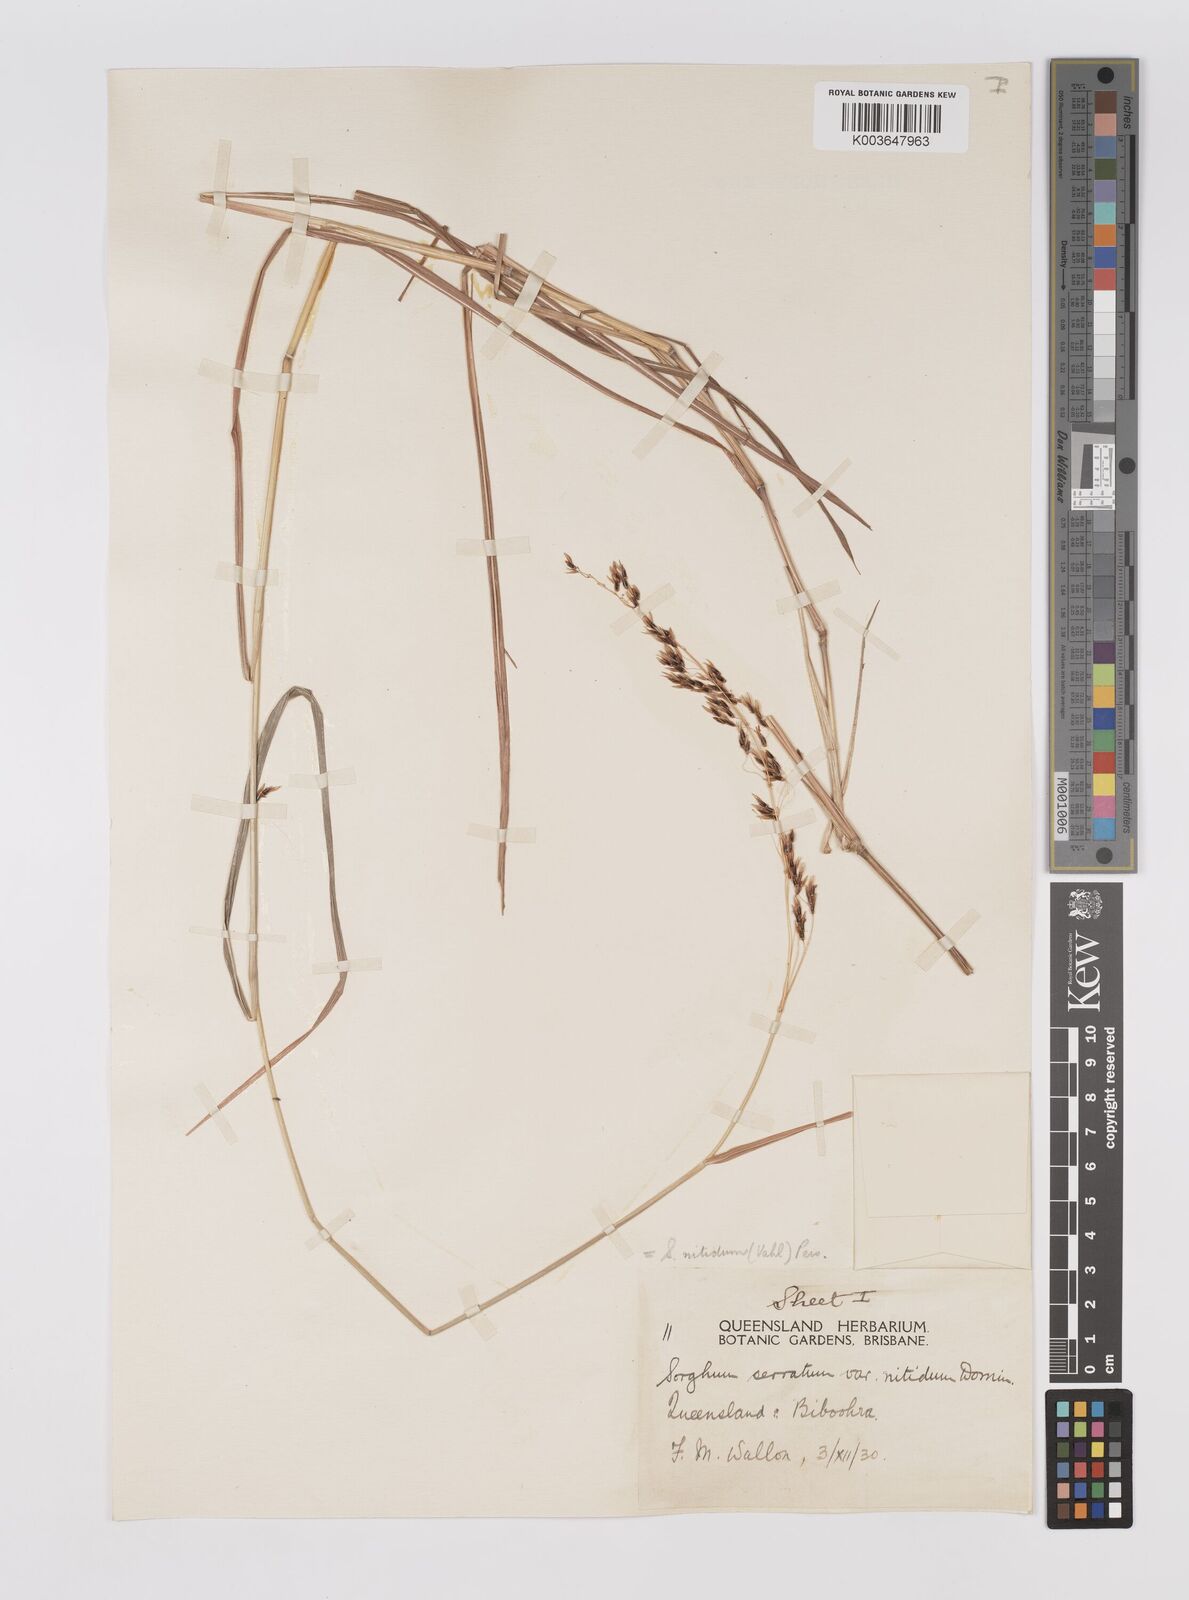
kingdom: Plantae
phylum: Tracheophyta
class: Liliopsida
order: Poales
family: Poaceae
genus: Sorghum
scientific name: Sorghum nitidum
